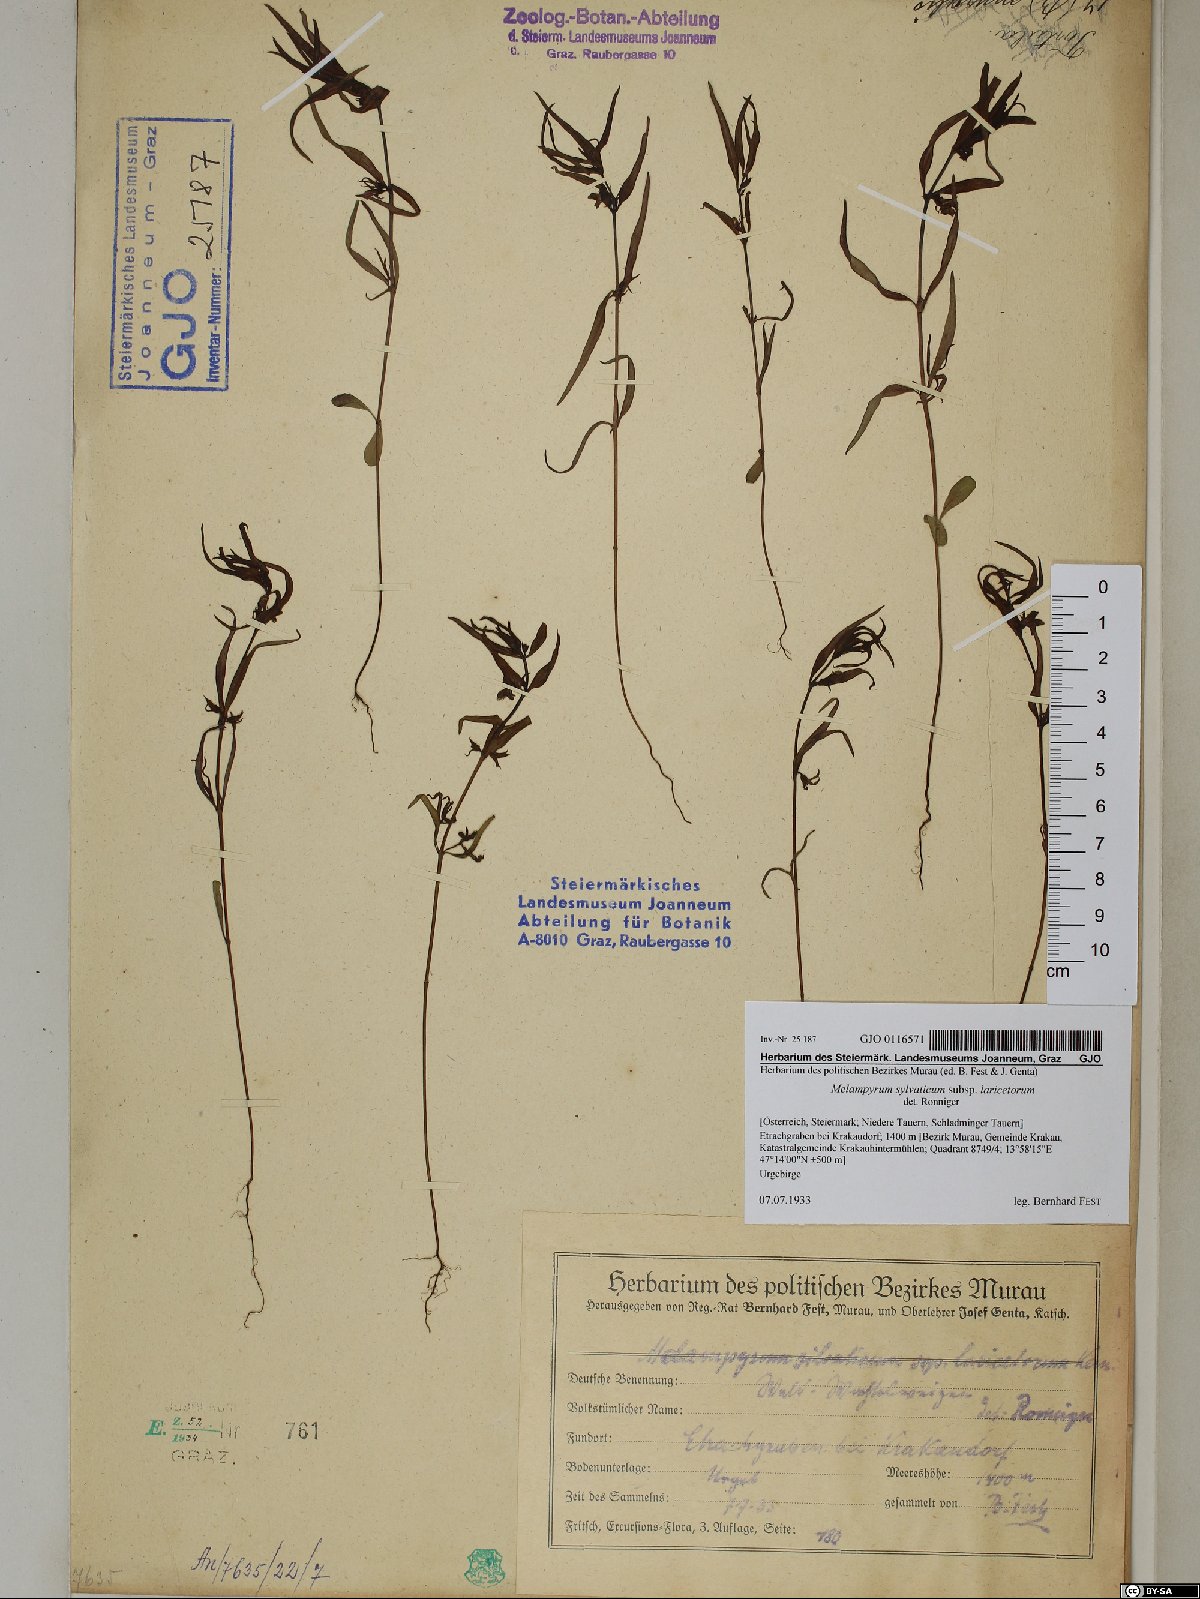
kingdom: Plantae
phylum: Tracheophyta
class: Magnoliopsida
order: Lamiales
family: Orobanchaceae
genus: Melampyrum
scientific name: Melampyrum sylvaticum
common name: Small cow-wheat
